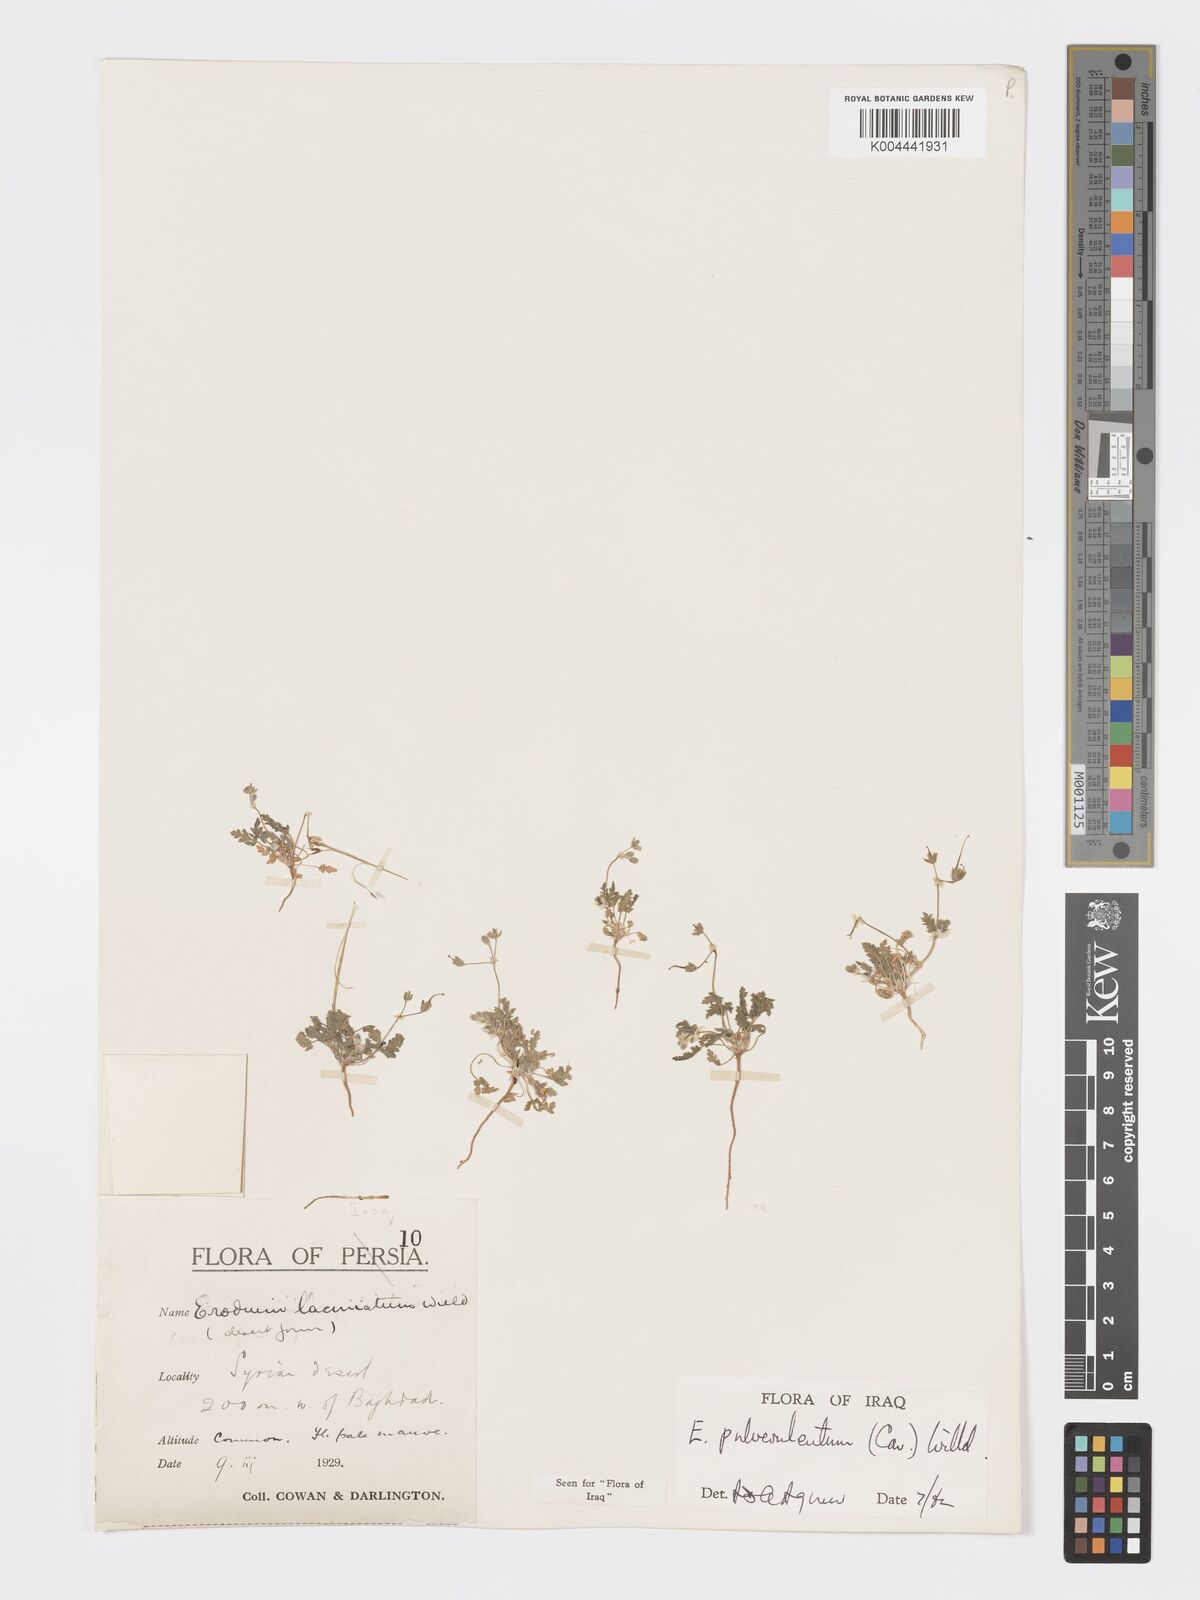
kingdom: Plantae
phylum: Tracheophyta
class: Magnoliopsida
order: Geraniales
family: Geraniaceae
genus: Erodium
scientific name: Erodium laciniatum
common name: Cutleaf stork's bill
